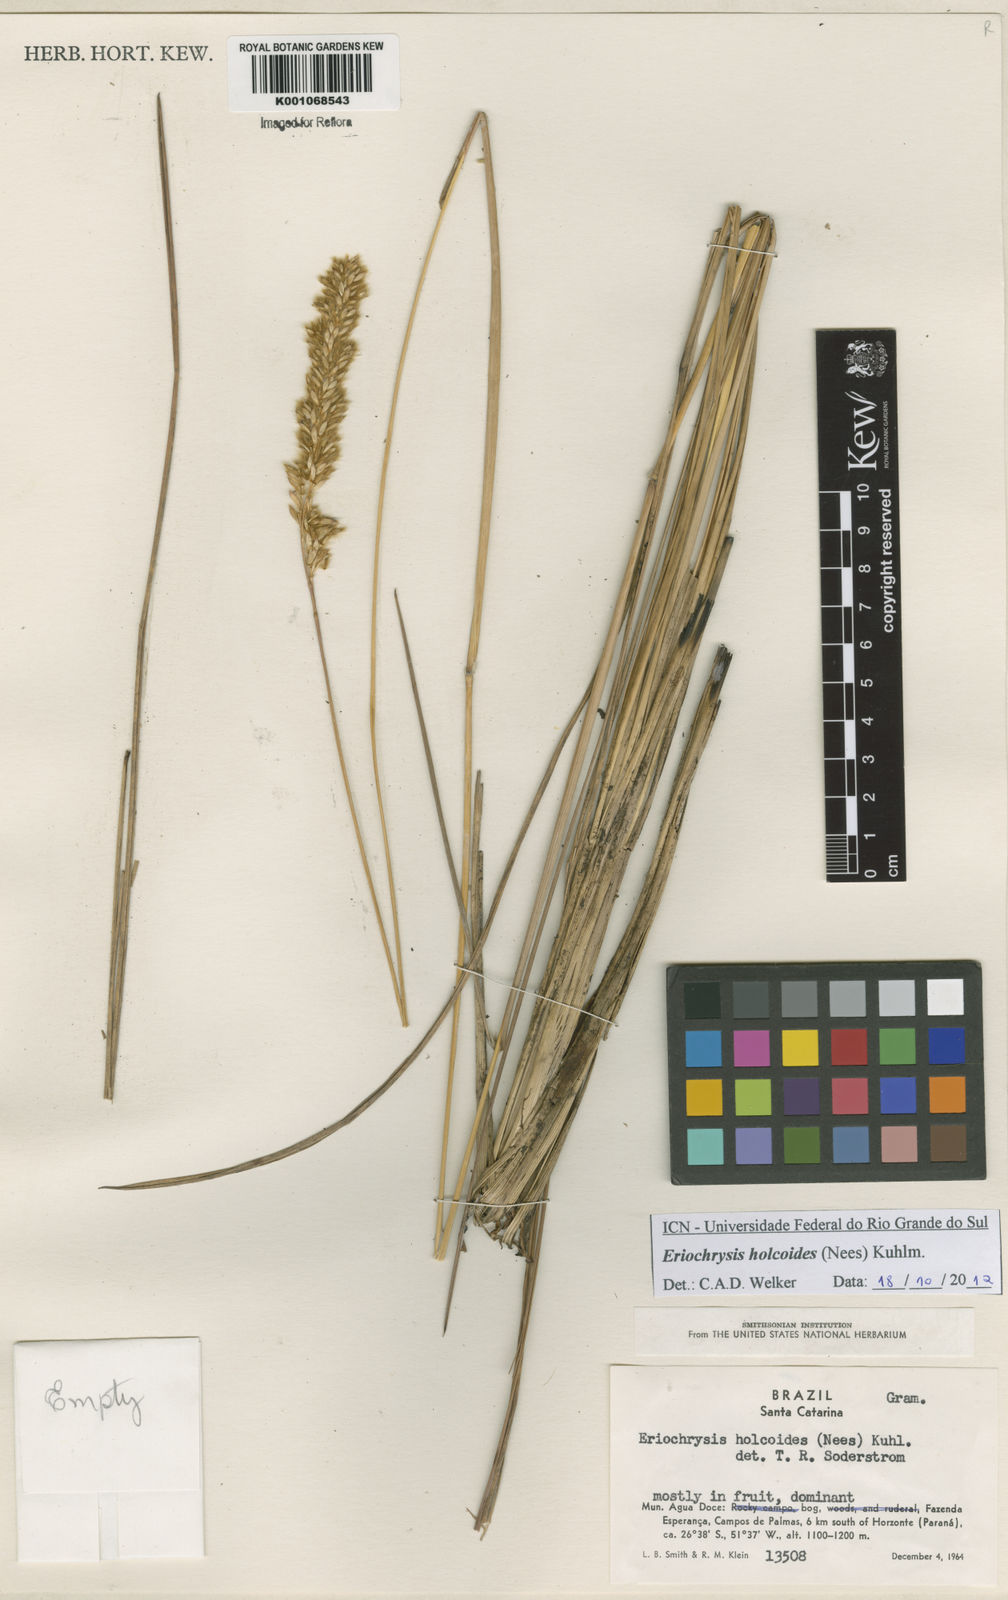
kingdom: Plantae
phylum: Tracheophyta
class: Liliopsida
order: Poales
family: Poaceae
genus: Eriochrysis
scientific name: Eriochrysis holcoides
